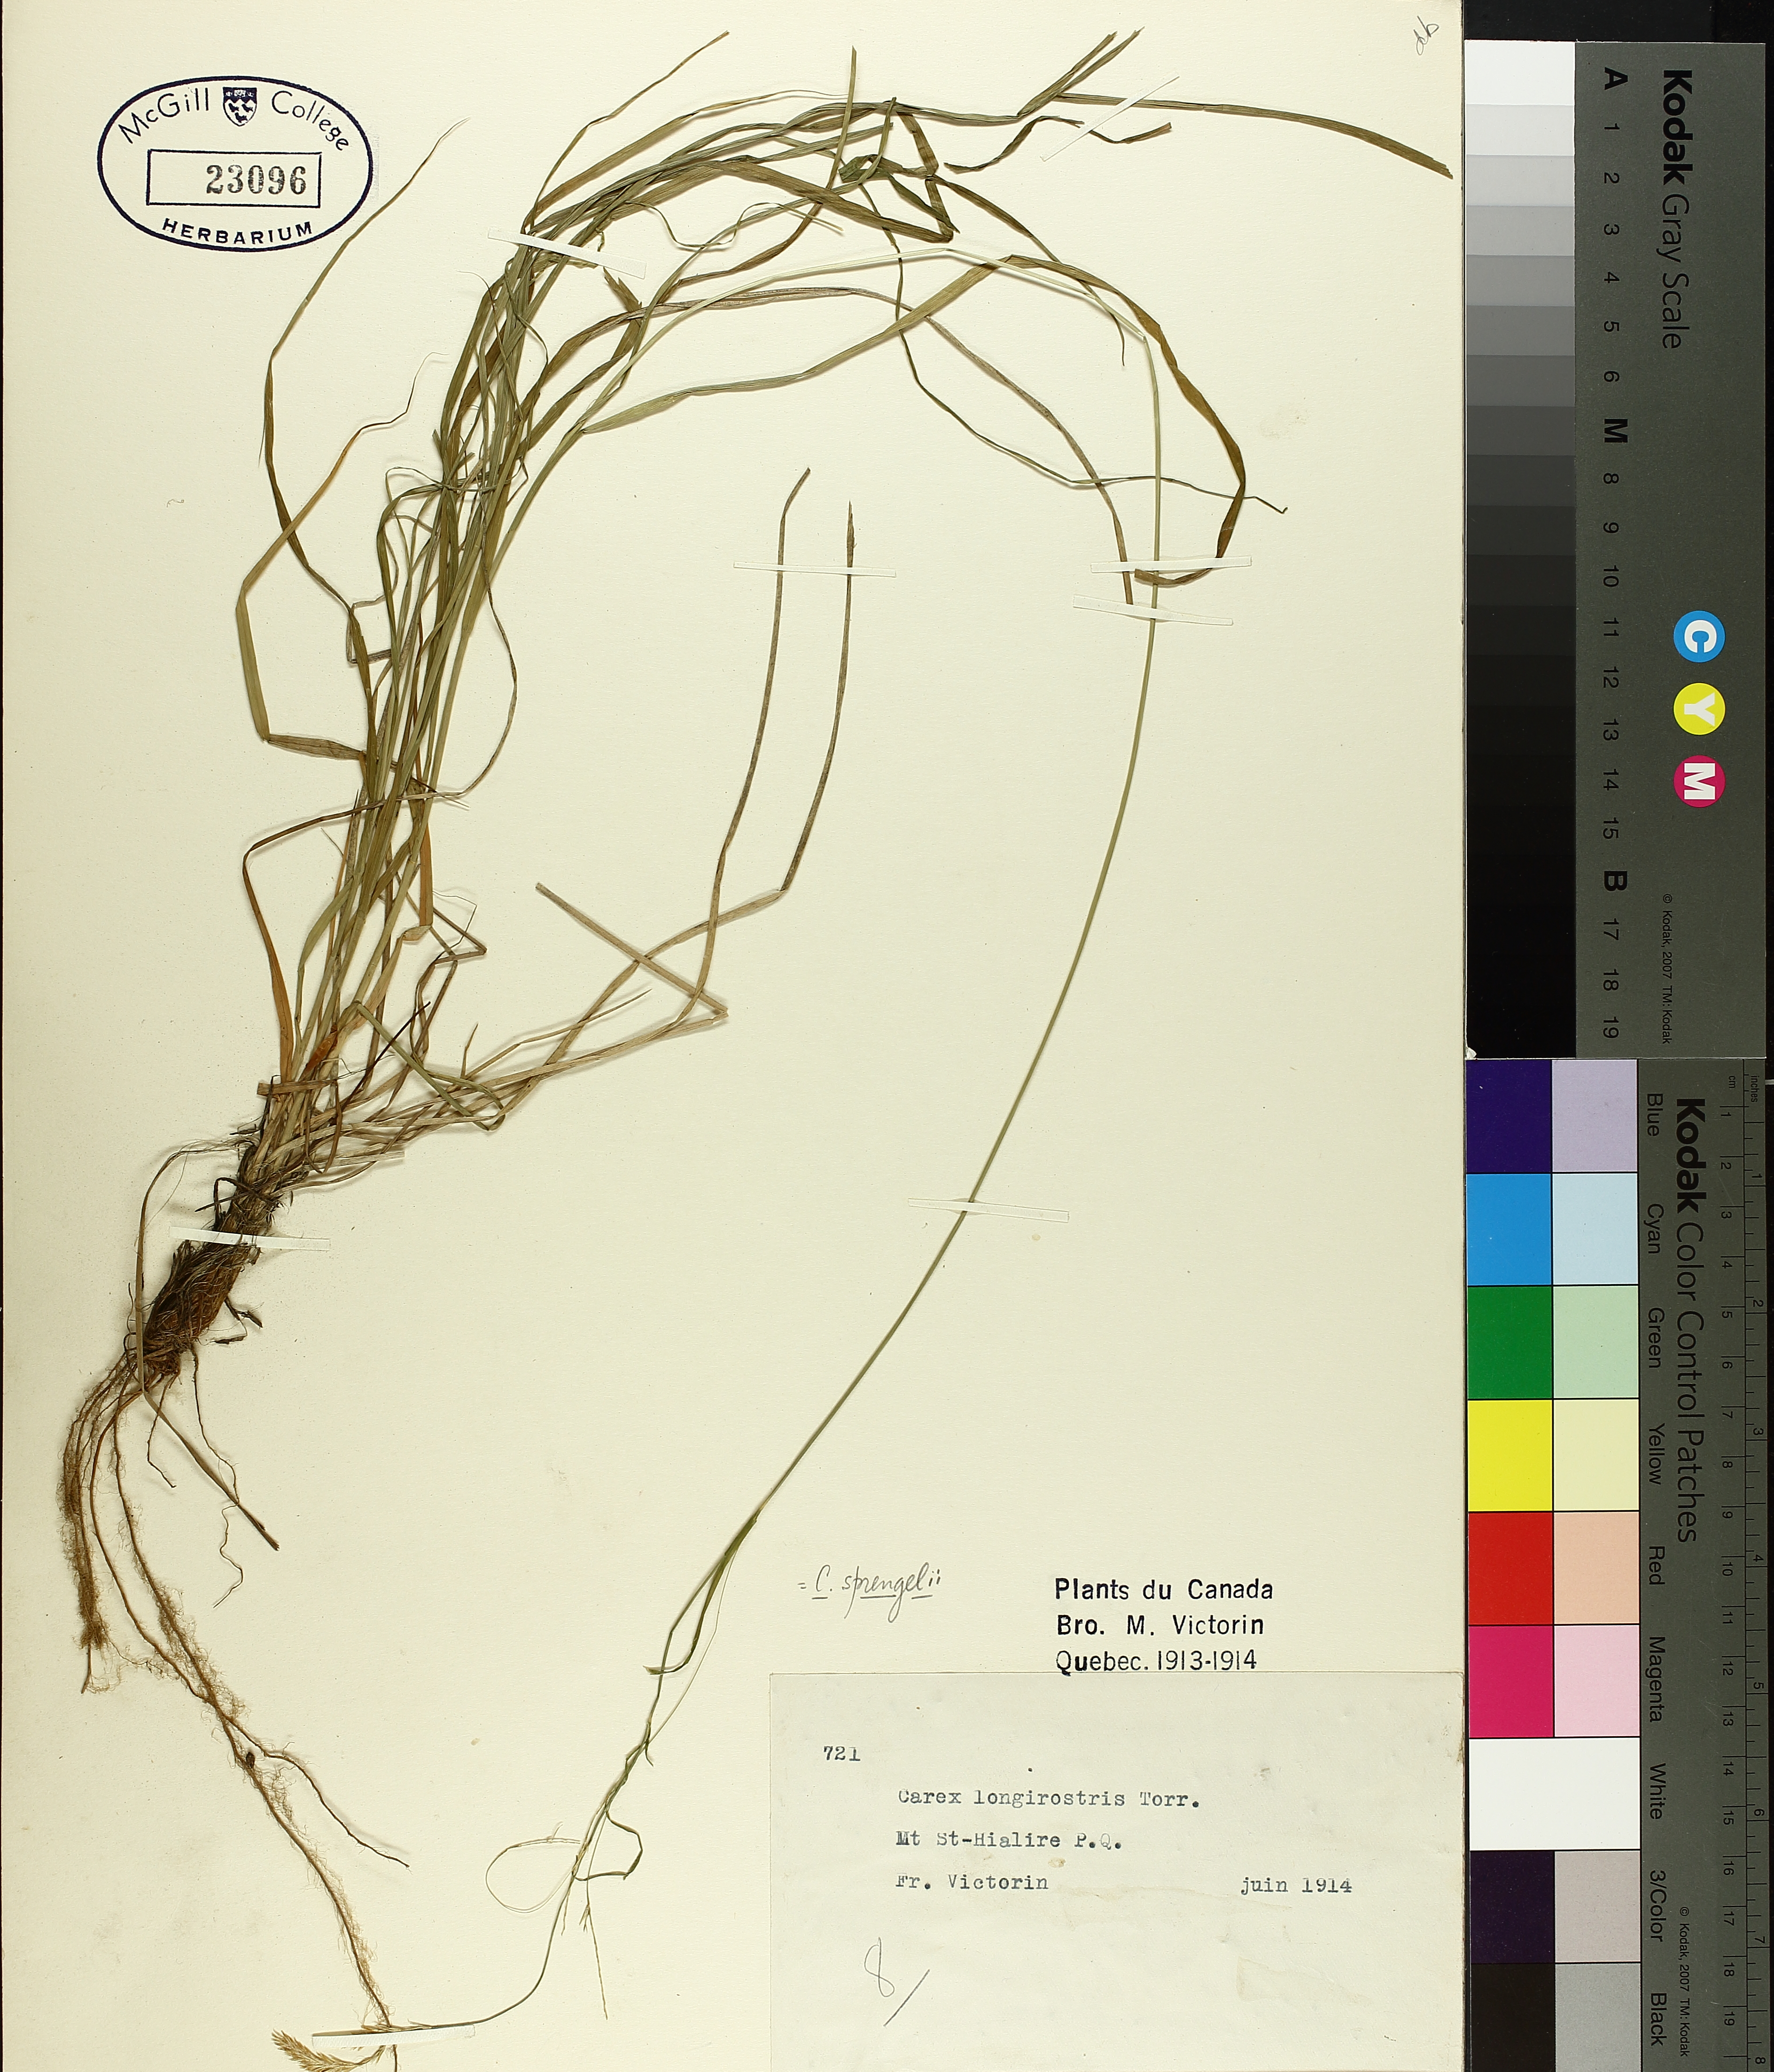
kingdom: Plantae
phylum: Tracheophyta
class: Liliopsida
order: Poales
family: Cyperaceae
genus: Carex
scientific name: Carex sprengelii
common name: Long-beaked sedge
